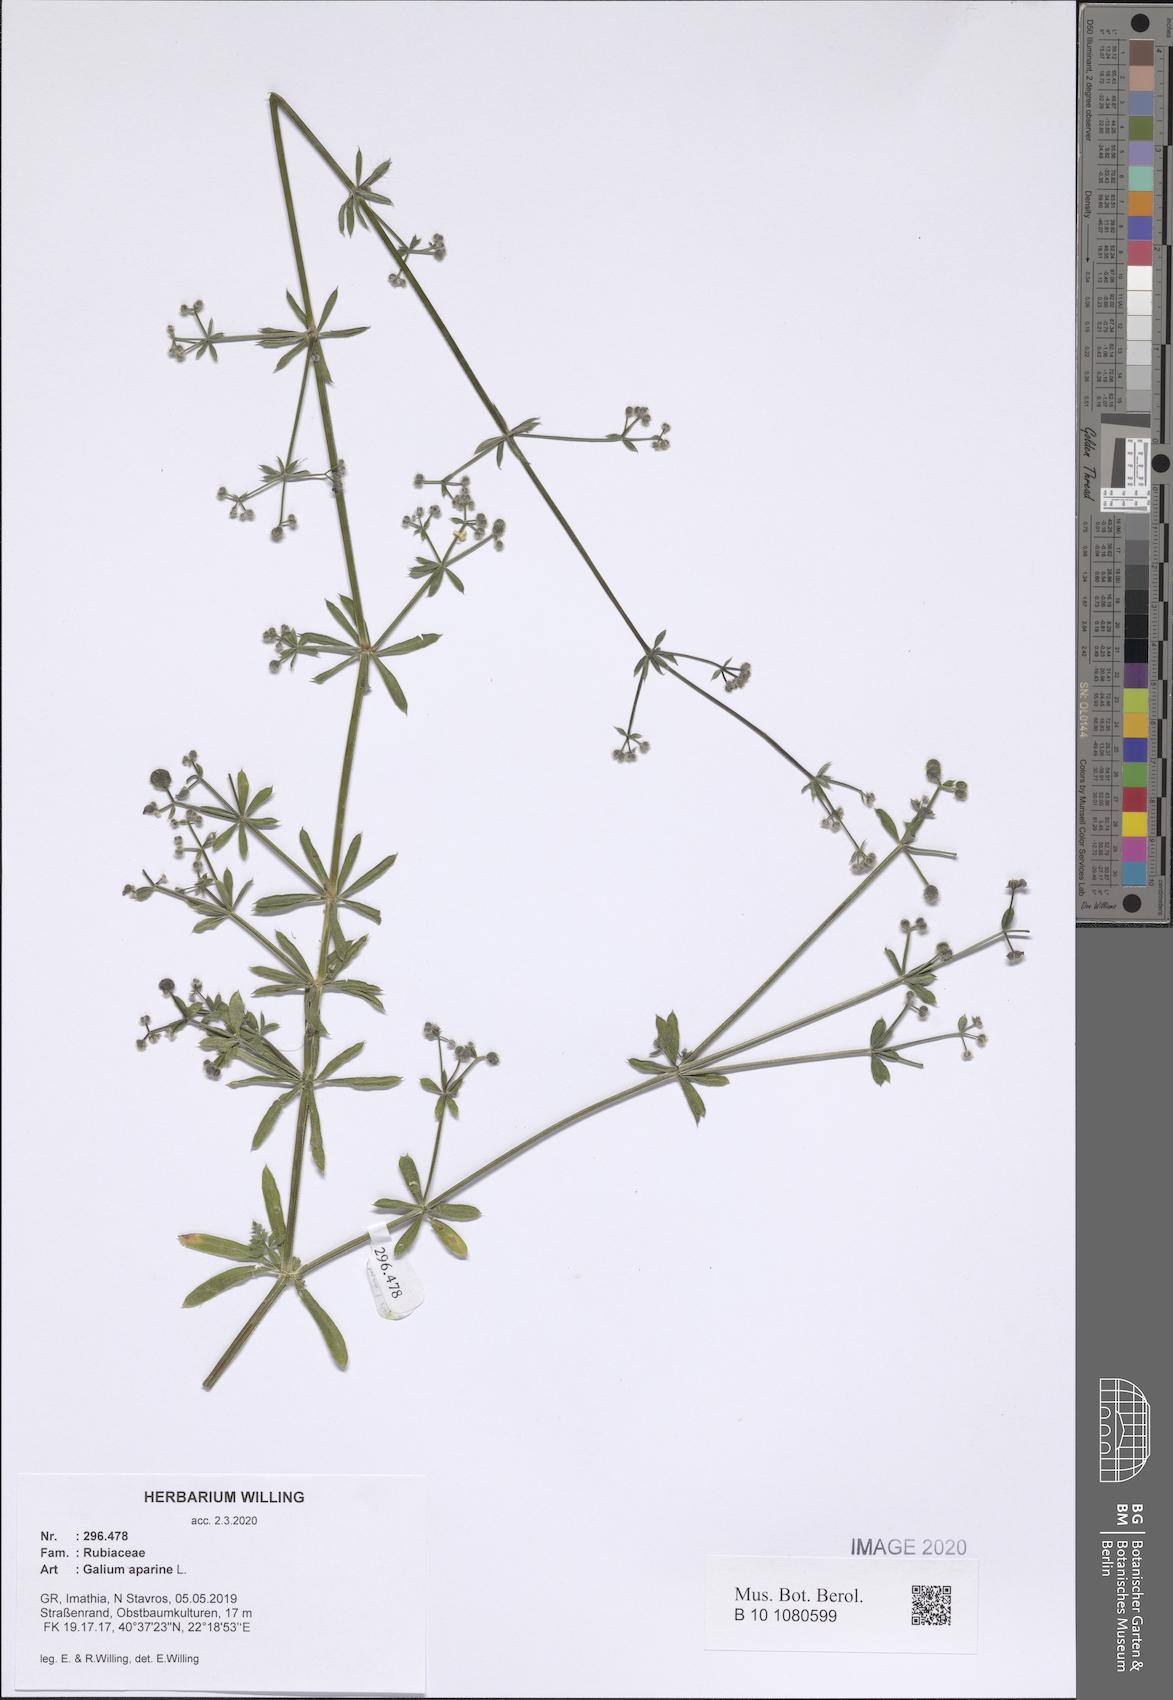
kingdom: Plantae
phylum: Tracheophyta
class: Magnoliopsida
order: Gentianales
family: Rubiaceae
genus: Galium
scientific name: Galium aparine
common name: Cleavers
